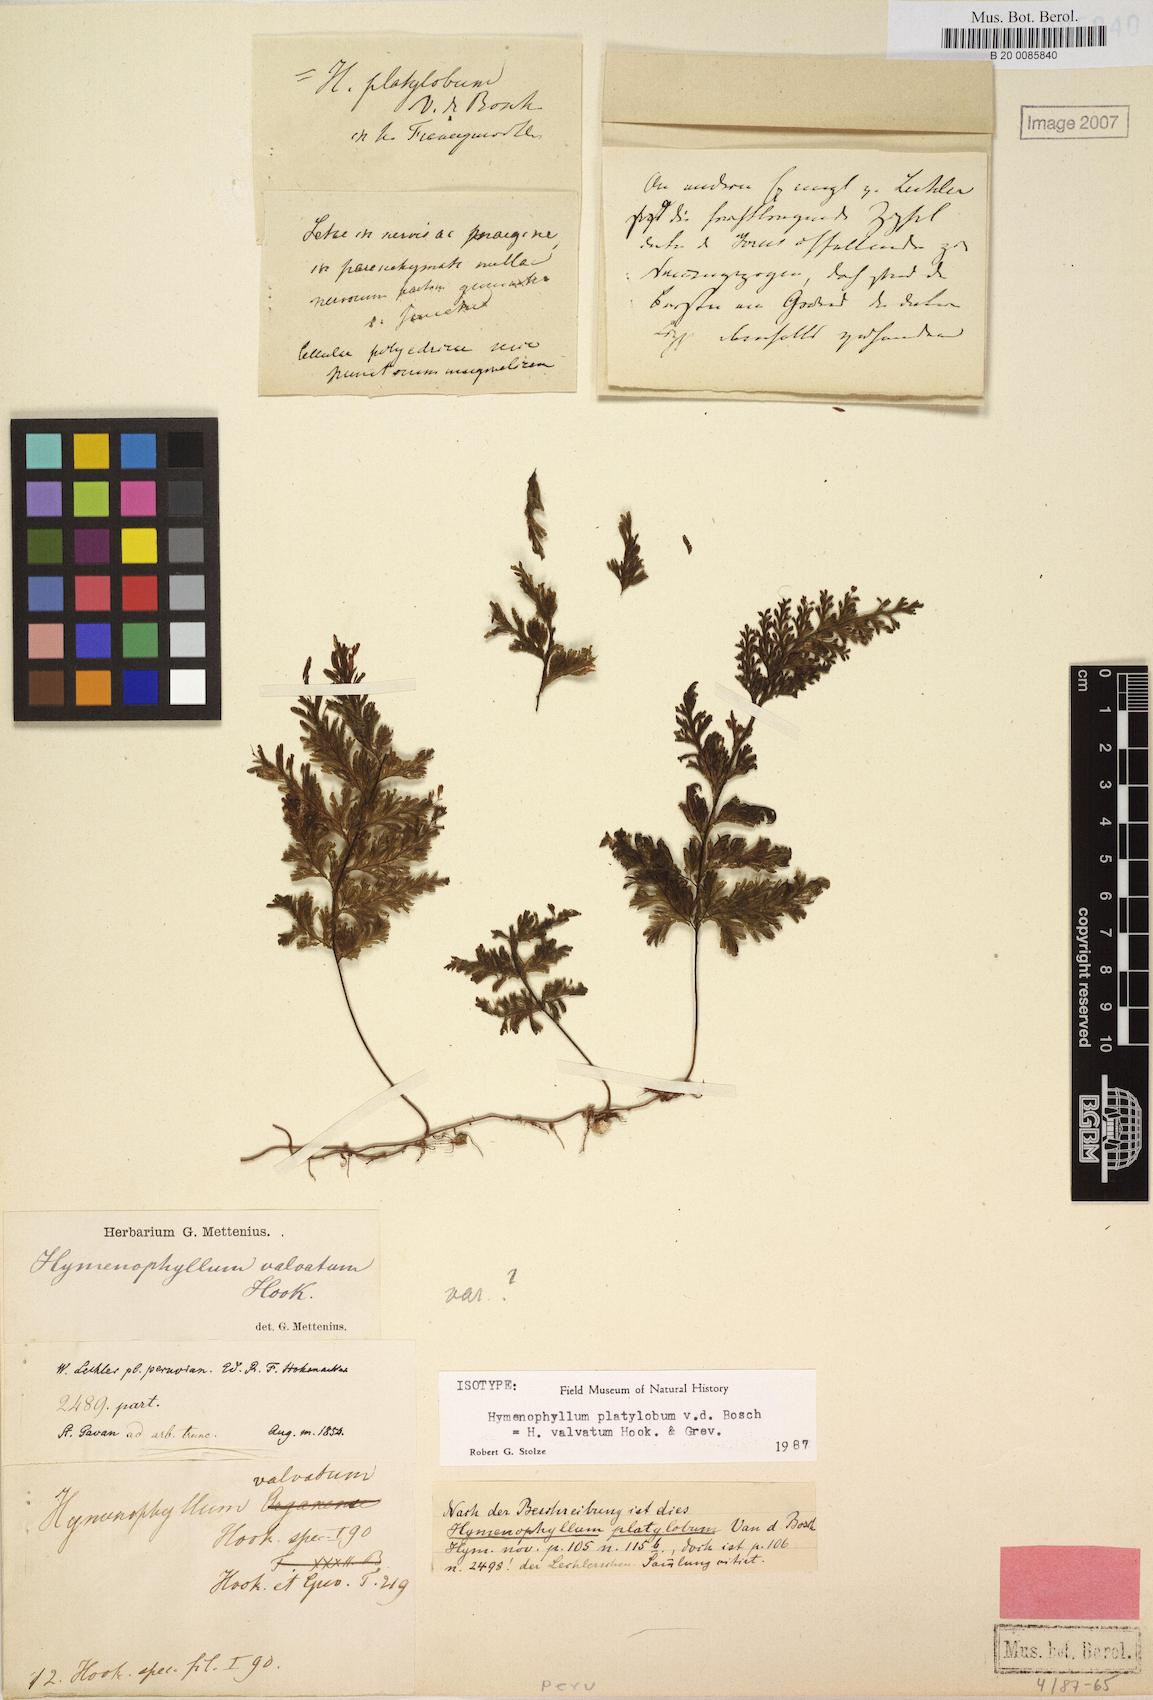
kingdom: Plantae
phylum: Tracheophyta
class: Polypodiopsida
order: Hymenophyllales
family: Hymenophyllaceae
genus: Hymenophyllum
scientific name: Hymenophyllum valvatum
